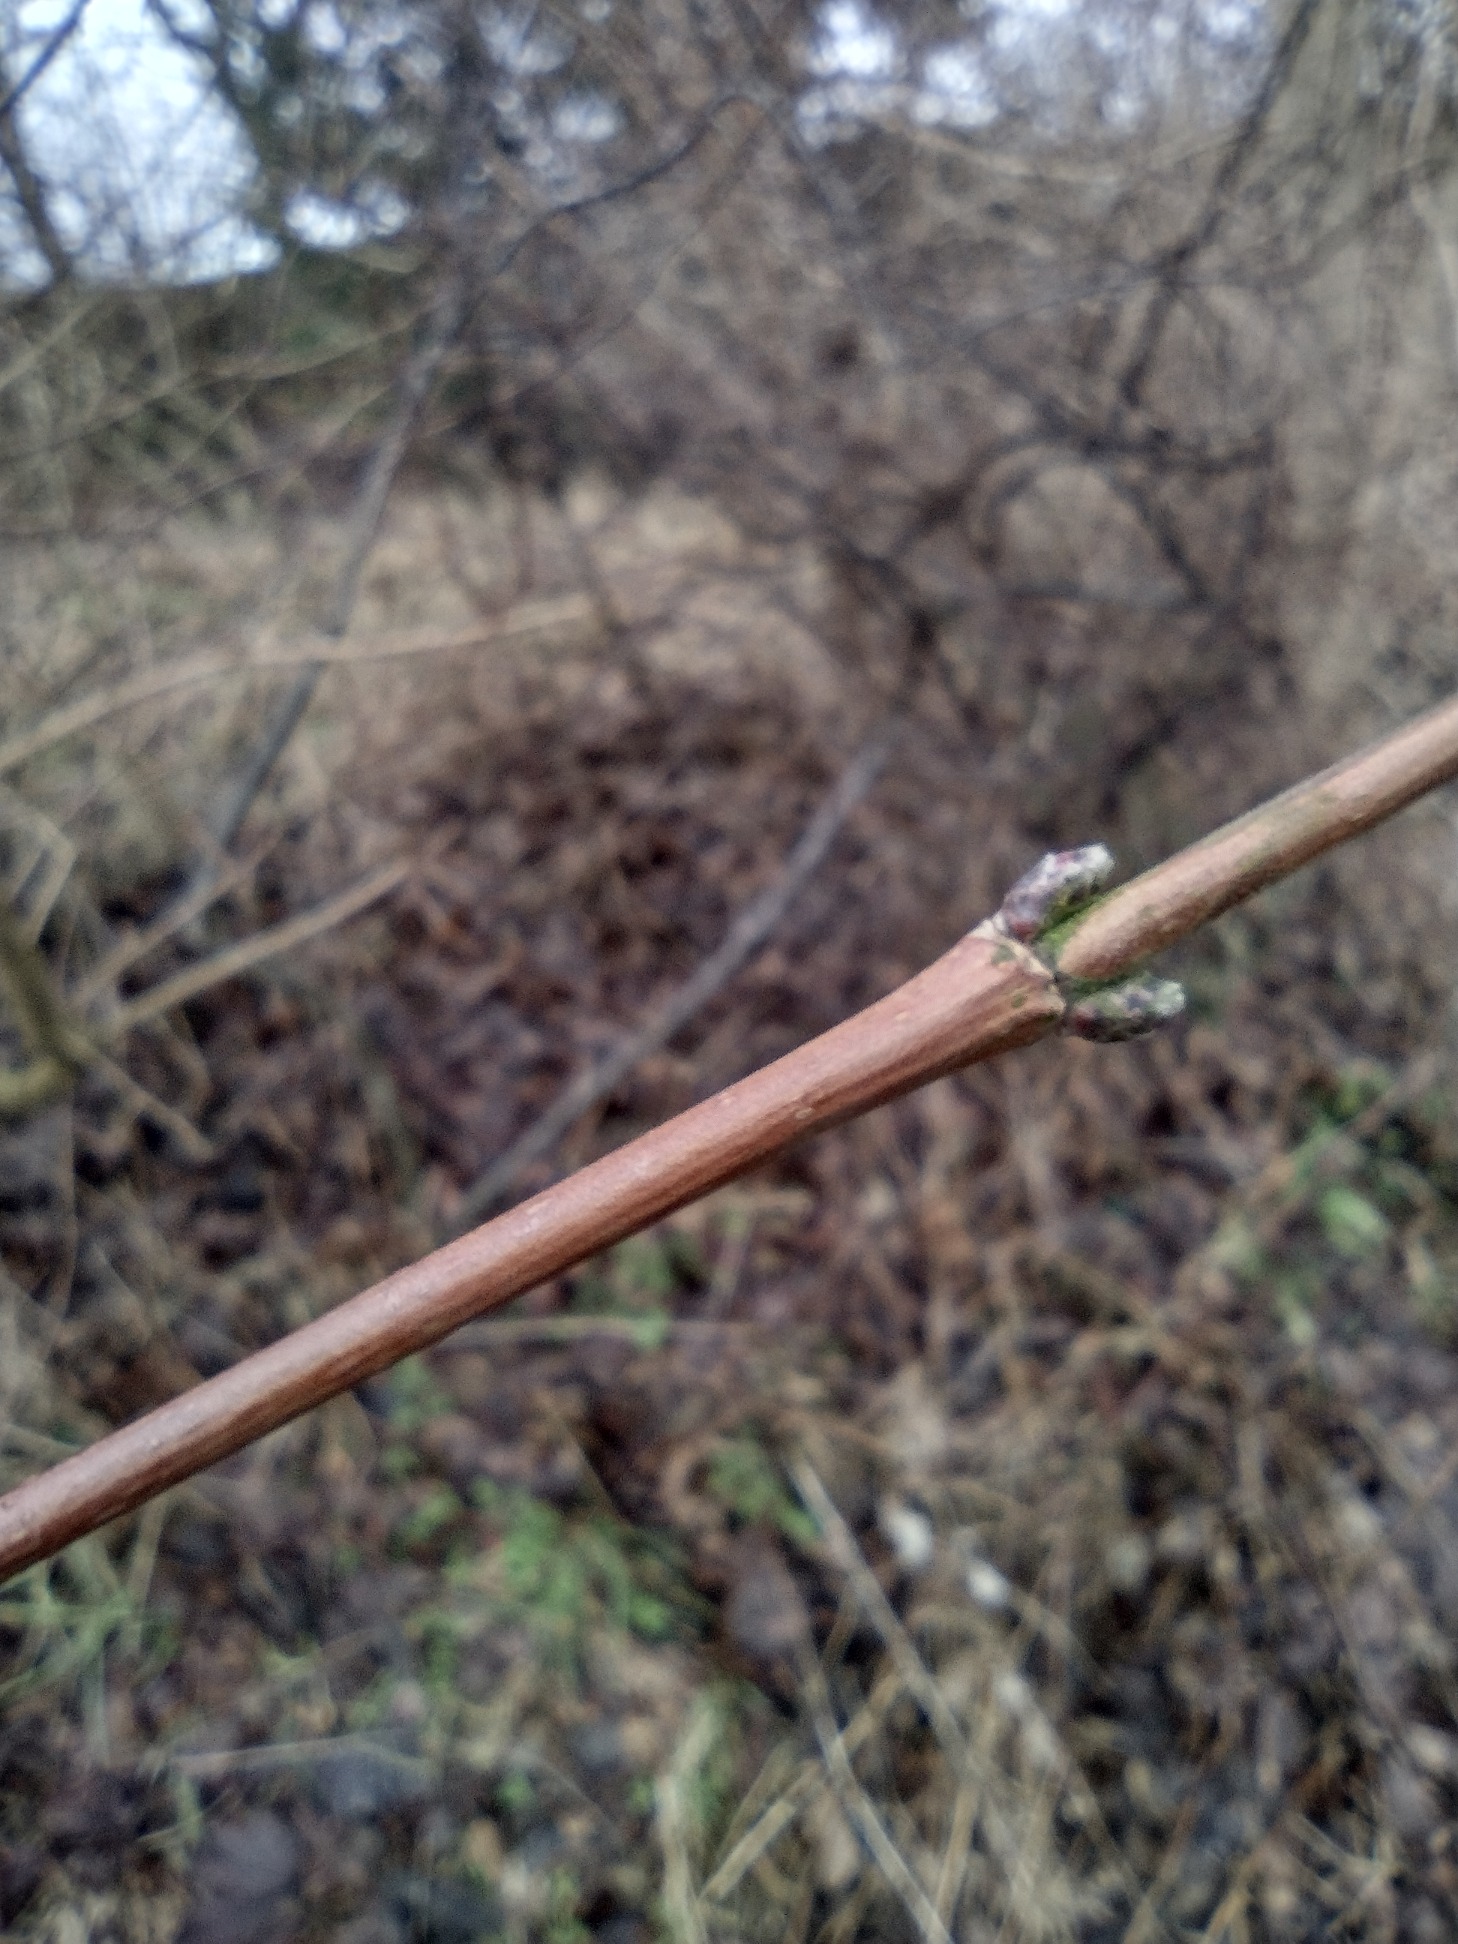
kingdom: Plantae
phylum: Tracheophyta
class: Magnoliopsida
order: Sapindales
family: Sapindaceae
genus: Acer
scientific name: Acer campestre
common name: Navr
